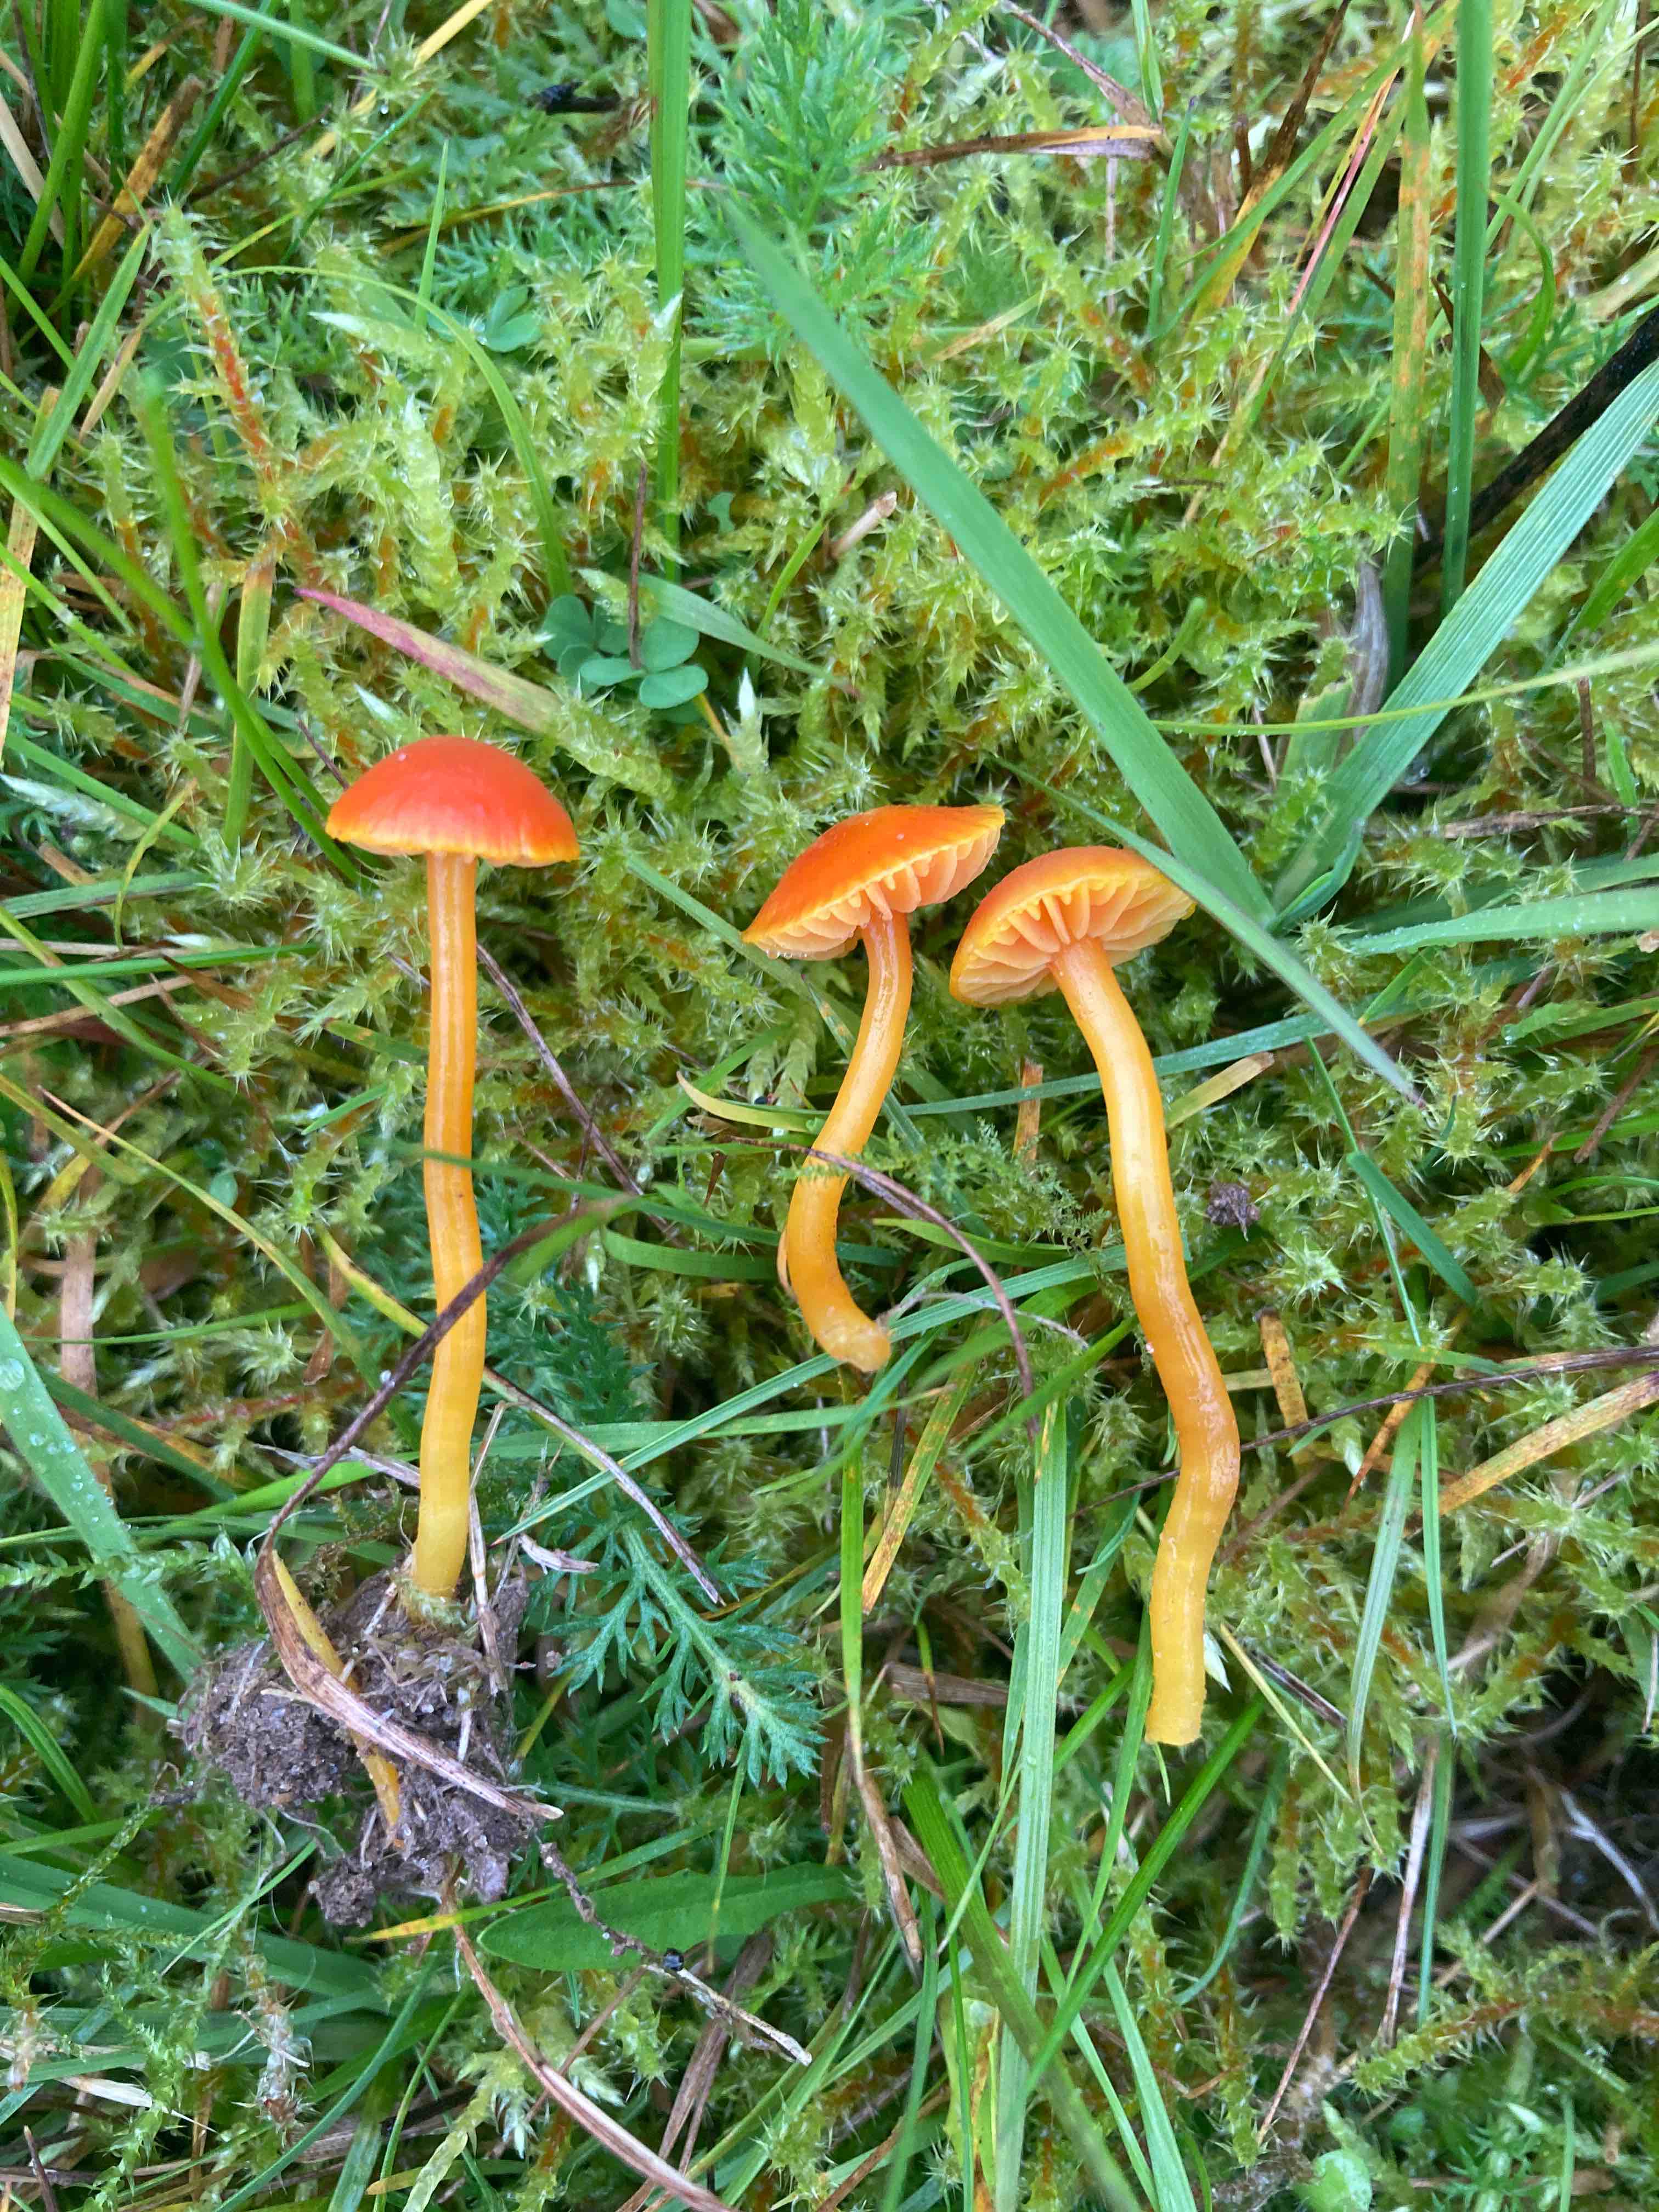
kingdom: Fungi
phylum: Basidiomycota
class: Agaricomycetes
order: Agaricales
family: Hygrophoraceae
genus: Hygrocybe
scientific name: Hygrocybe mucronella
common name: bitter vokshat
